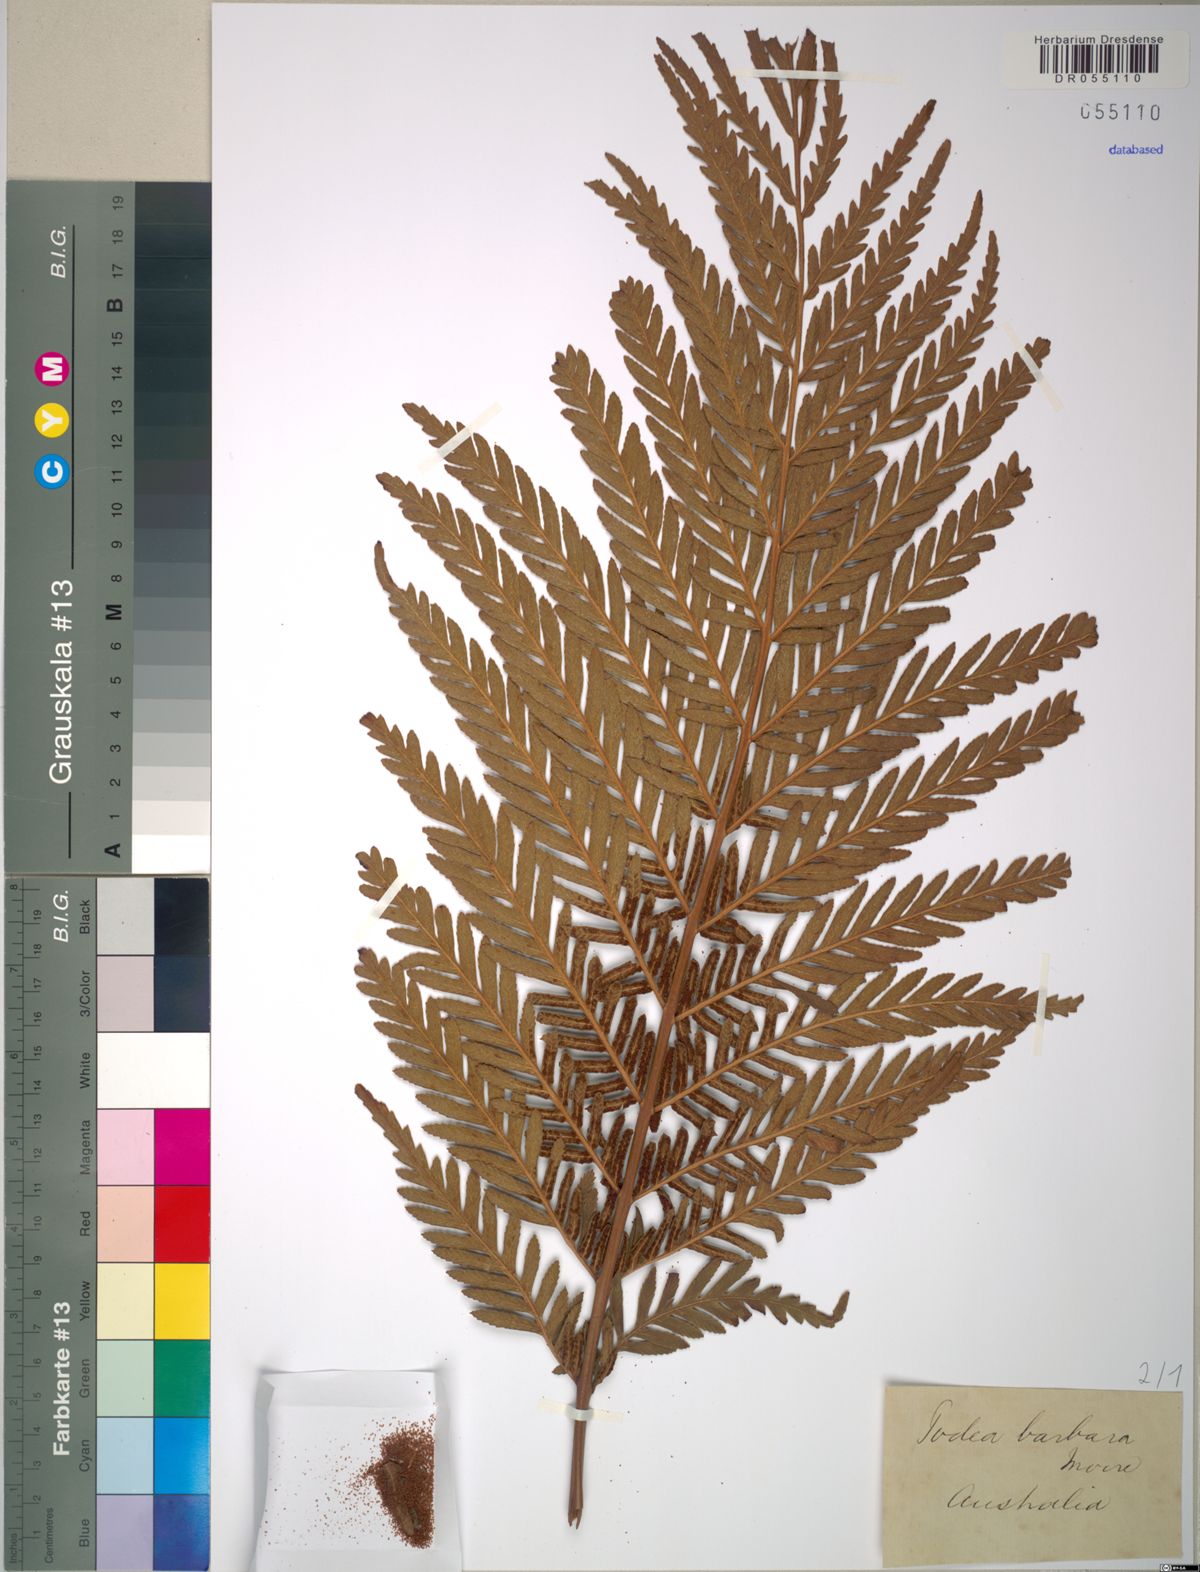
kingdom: Plantae
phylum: Tracheophyta
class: Polypodiopsida
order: Osmundales
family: Osmundaceae
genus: Todea
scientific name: Todea barbara
